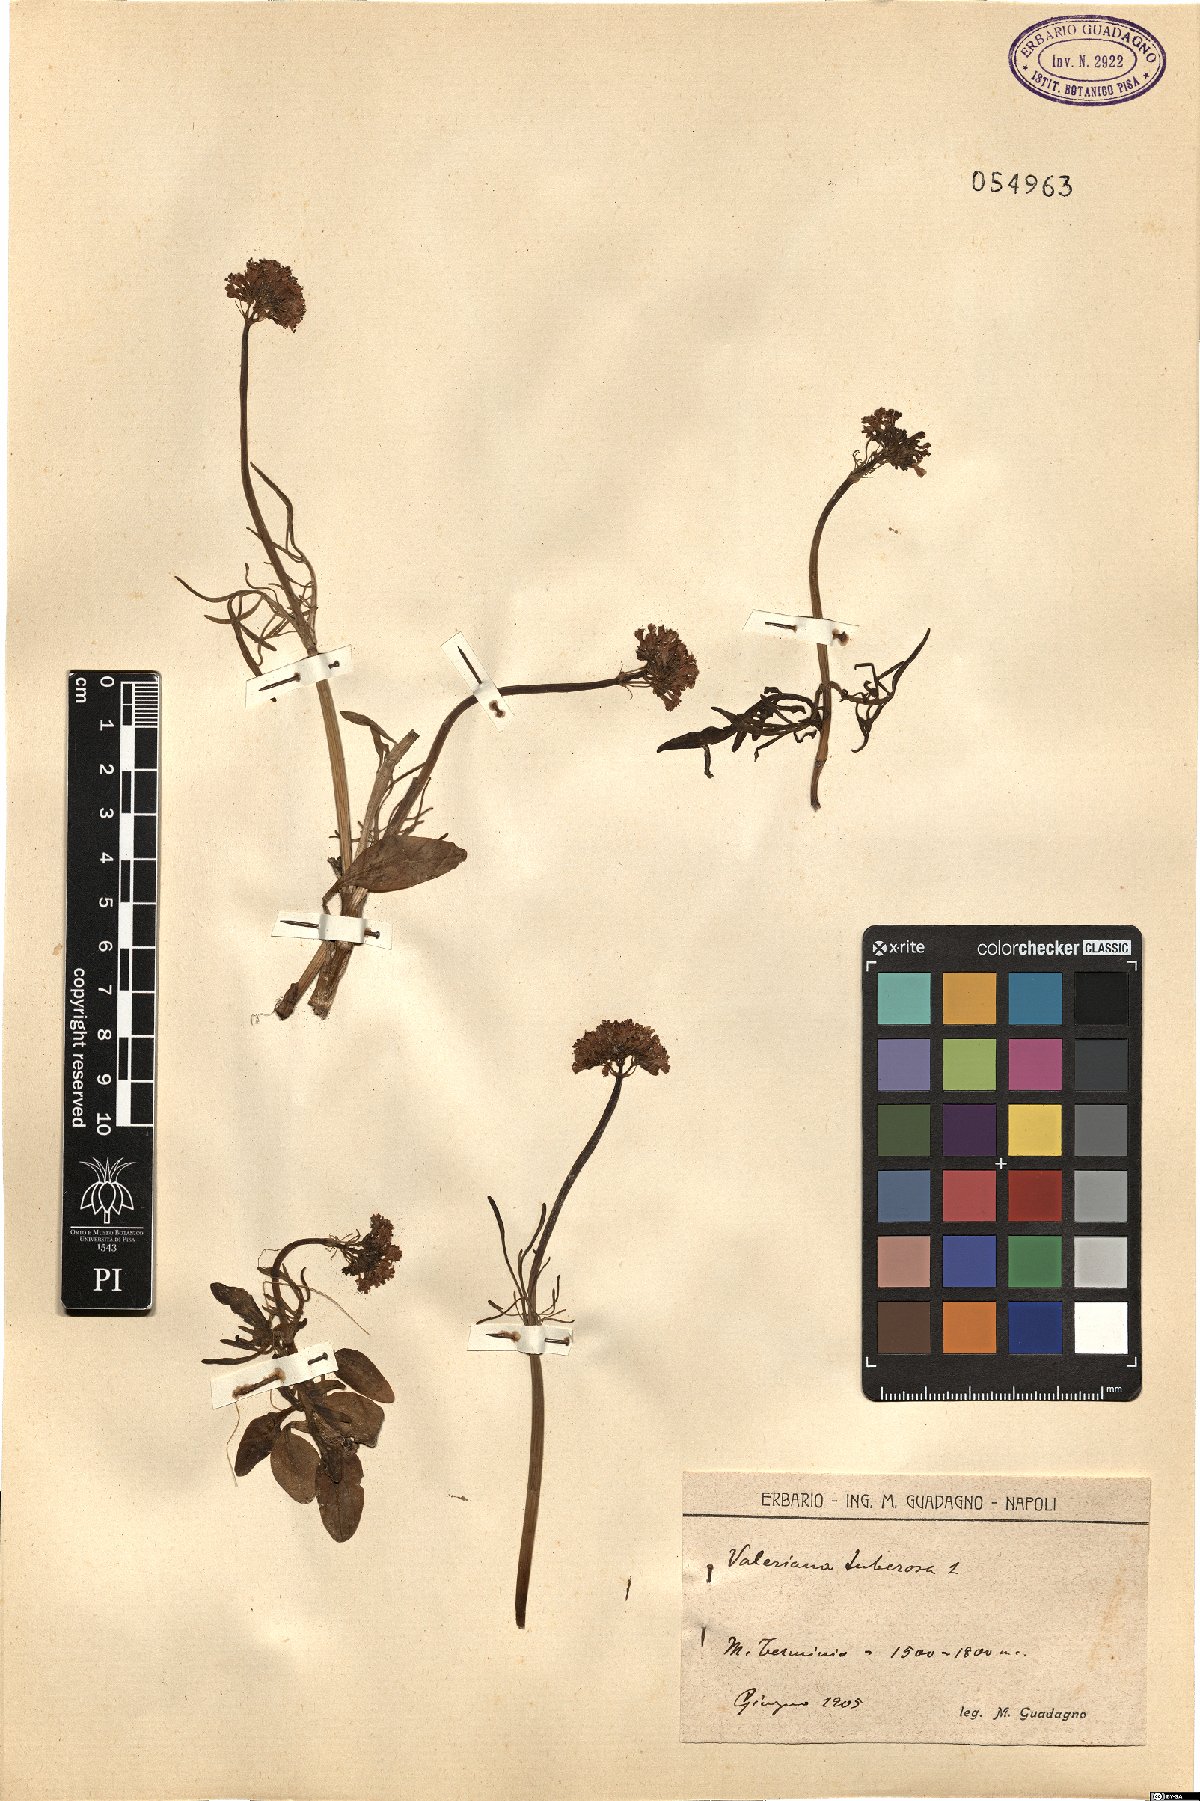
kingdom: Plantae
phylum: Tracheophyta
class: Magnoliopsida
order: Dipsacales
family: Caprifoliaceae
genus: Valeriana
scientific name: Valeriana tuberosa
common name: Tuberous valerian
